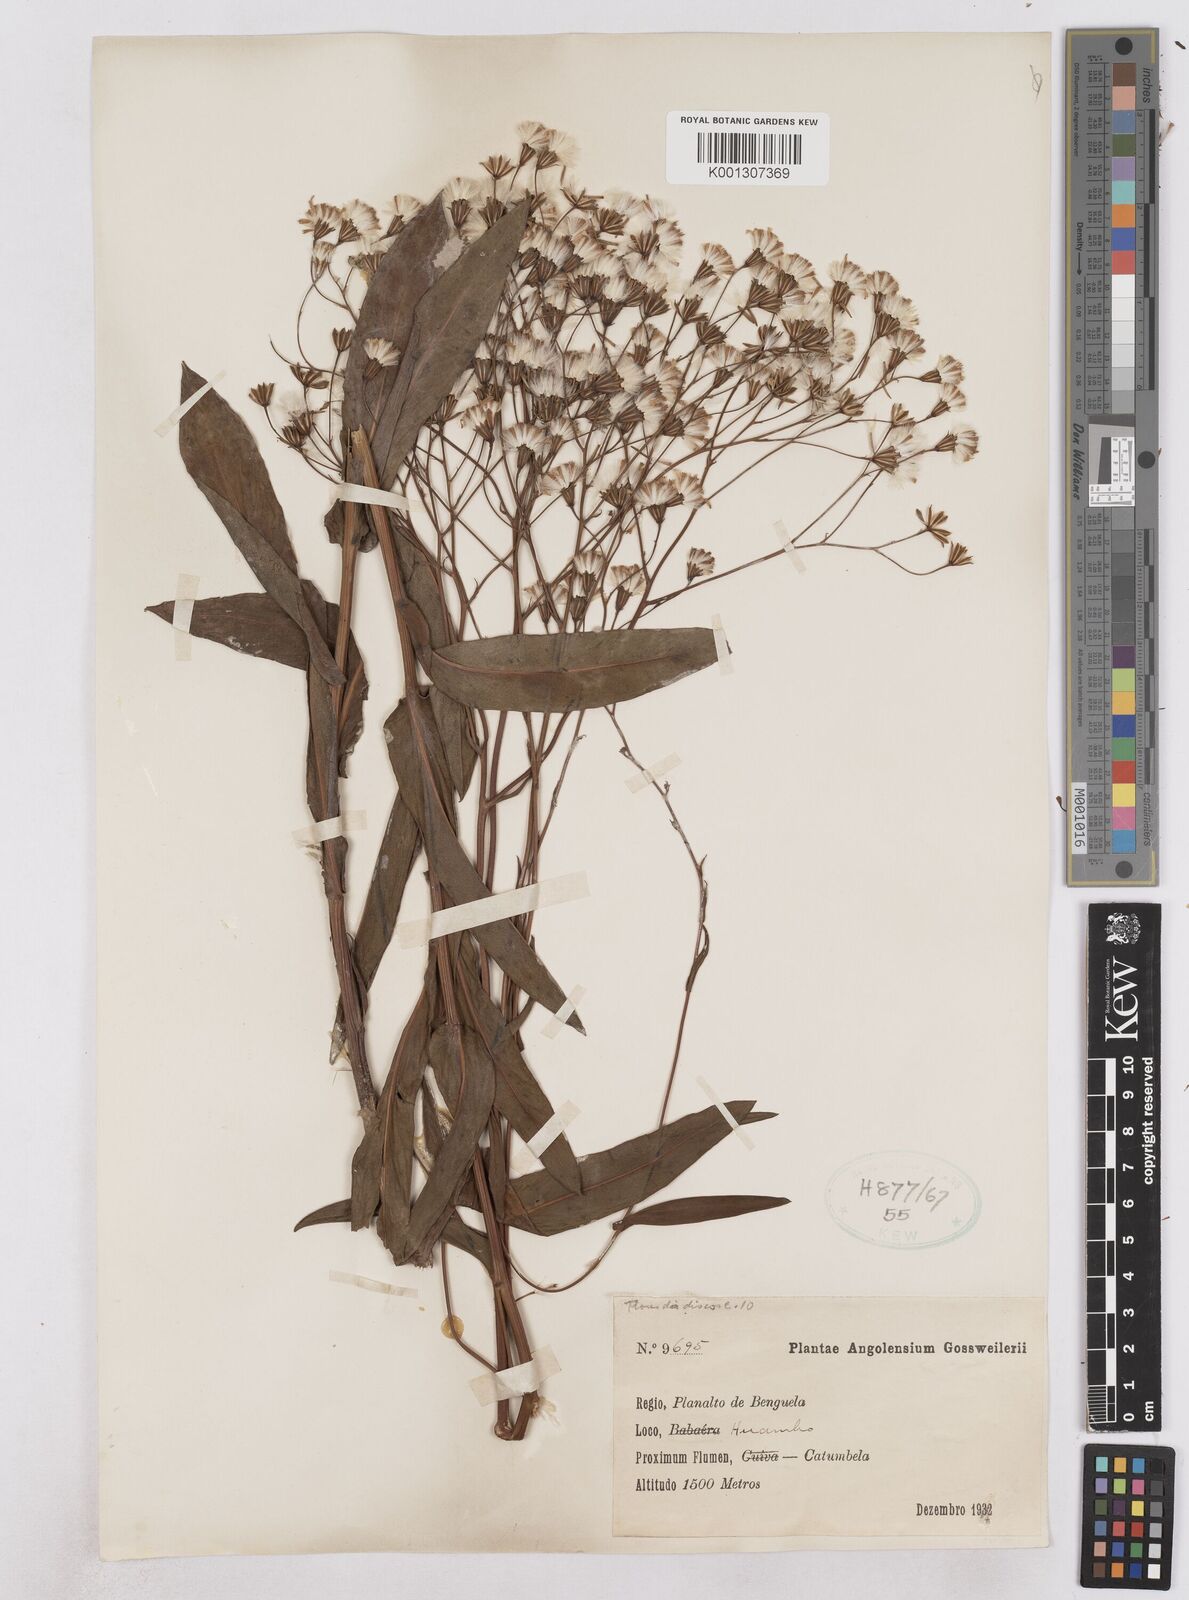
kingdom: Plantae
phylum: Tracheophyta
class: Magnoliopsida
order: Asterales
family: Asteraceae
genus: Senecio
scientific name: Senecio latifolius
